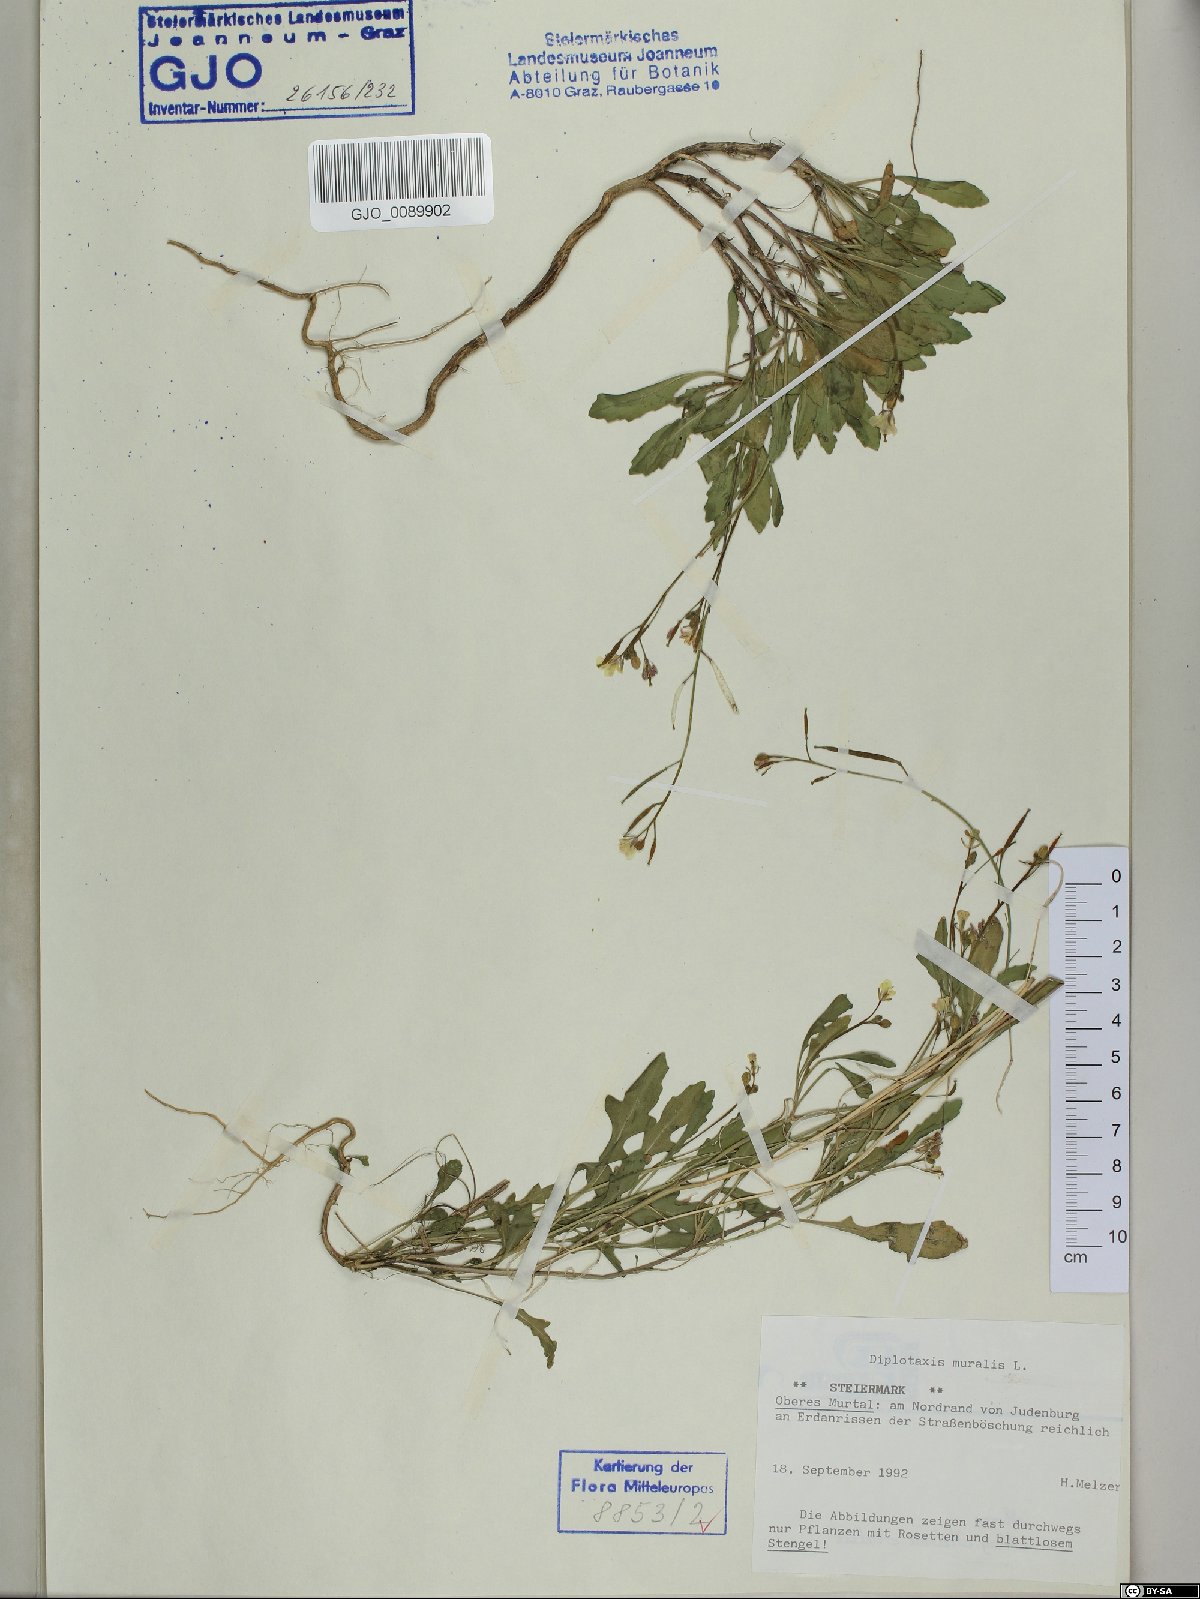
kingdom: Plantae
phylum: Tracheophyta
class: Magnoliopsida
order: Brassicales
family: Brassicaceae
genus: Diplotaxis
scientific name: Diplotaxis muralis
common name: Annual wall-rocket
